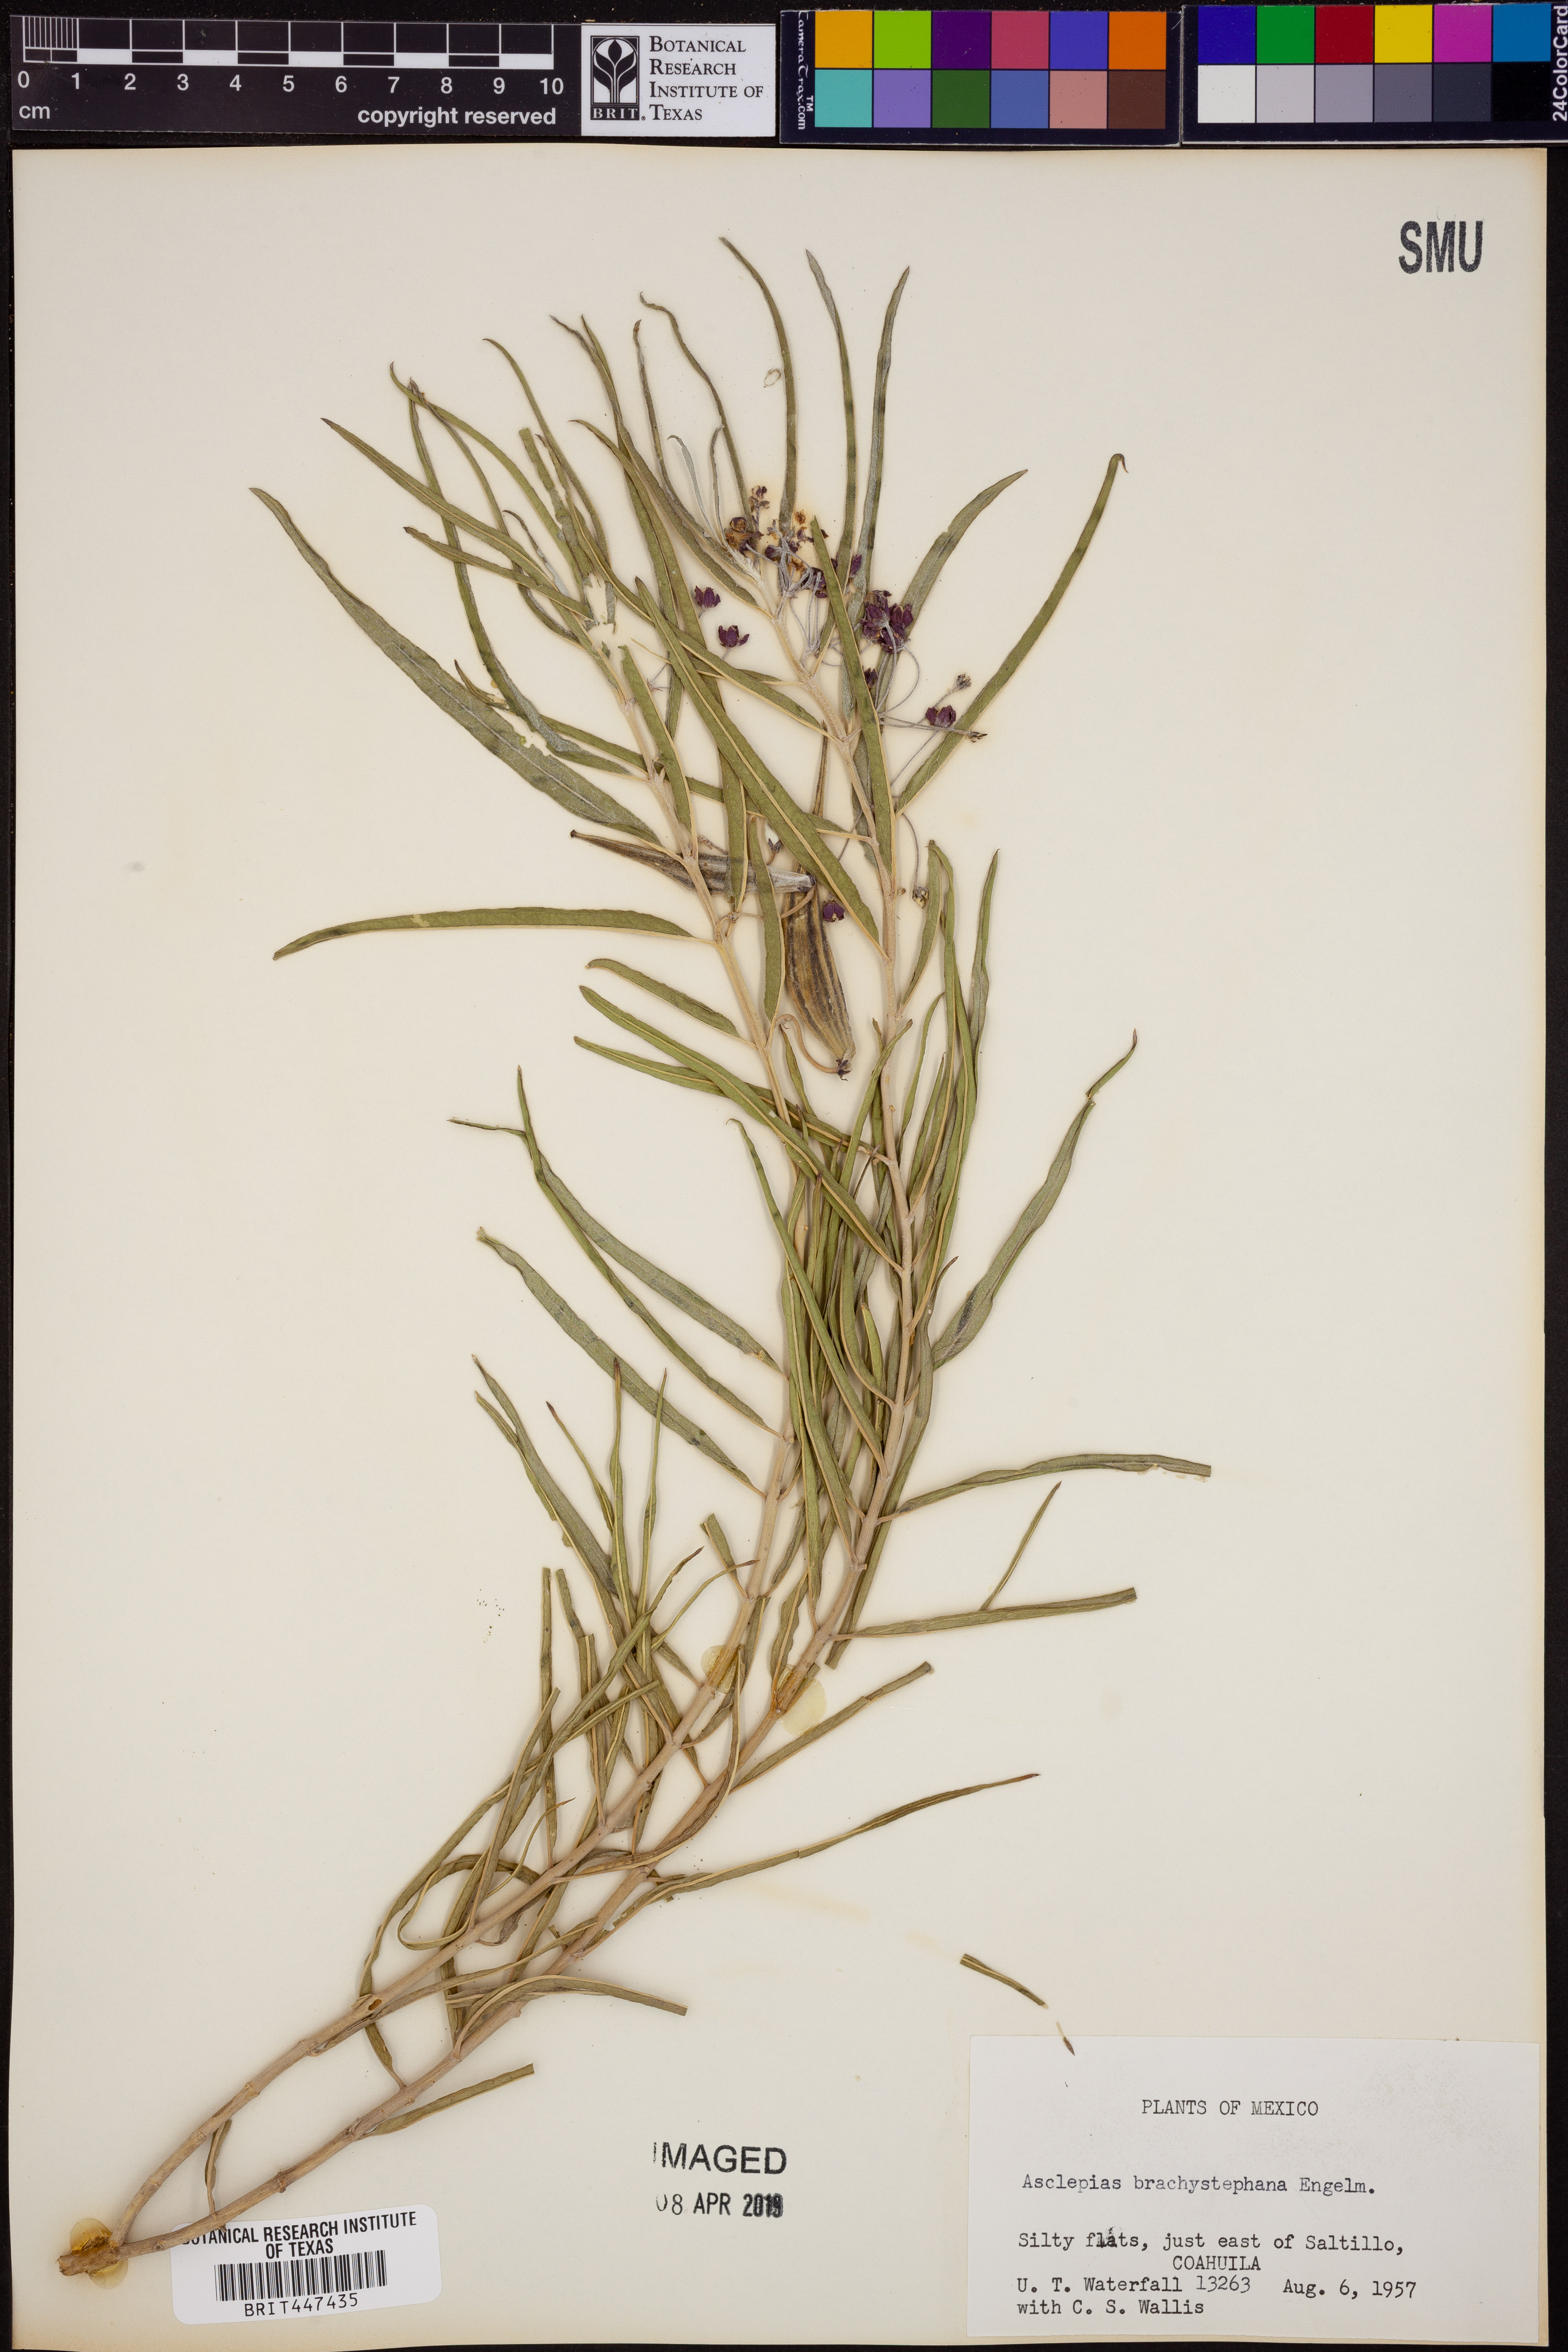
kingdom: Plantae
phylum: Tracheophyta
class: Magnoliopsida
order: Gentianales
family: Apocynaceae
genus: Asclepias
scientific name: Asclepias brachystephana
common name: Shortcrown milkweed
